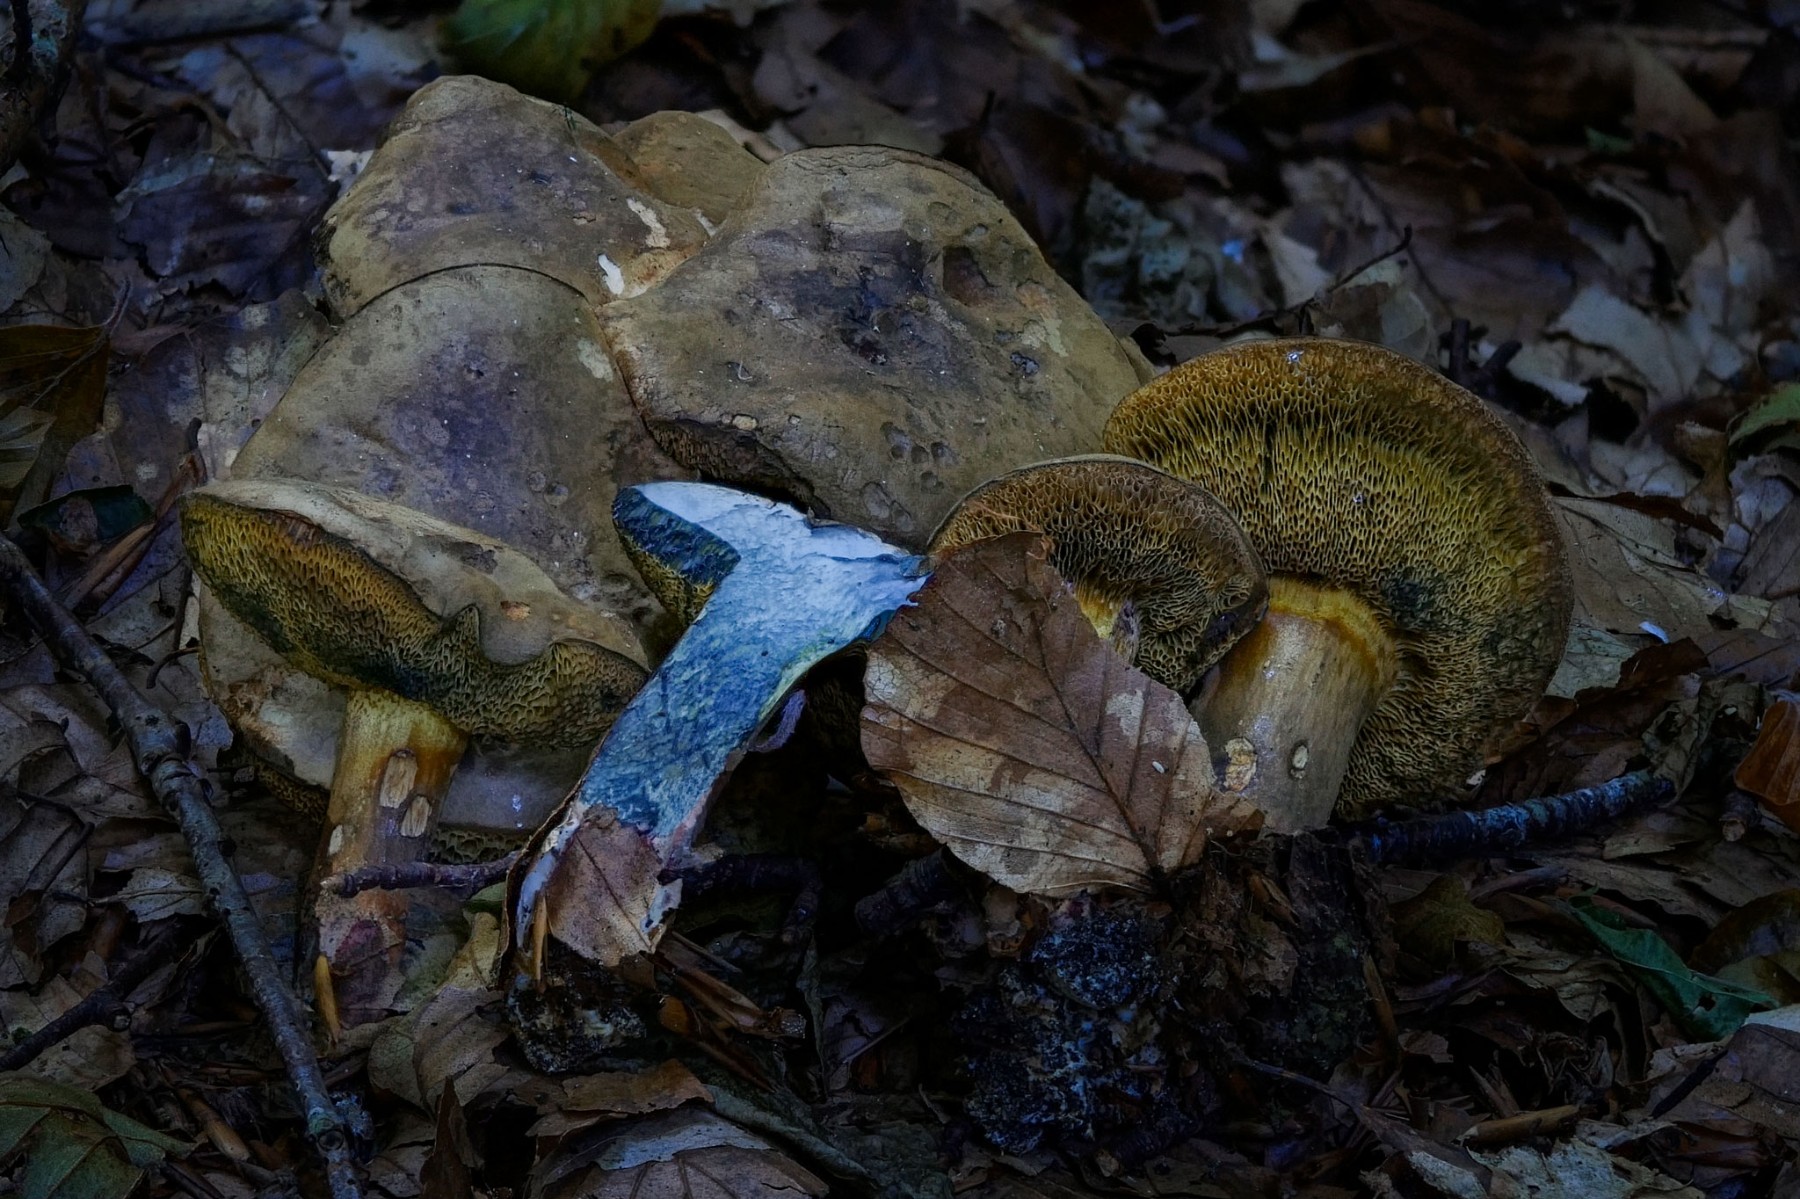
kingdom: Fungi
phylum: Basidiomycota
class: Agaricomycetes
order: Boletales
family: Boletaceae
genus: Cyanoboletus
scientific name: Cyanoboletus pulverulentus
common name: sortblånende rørhat
